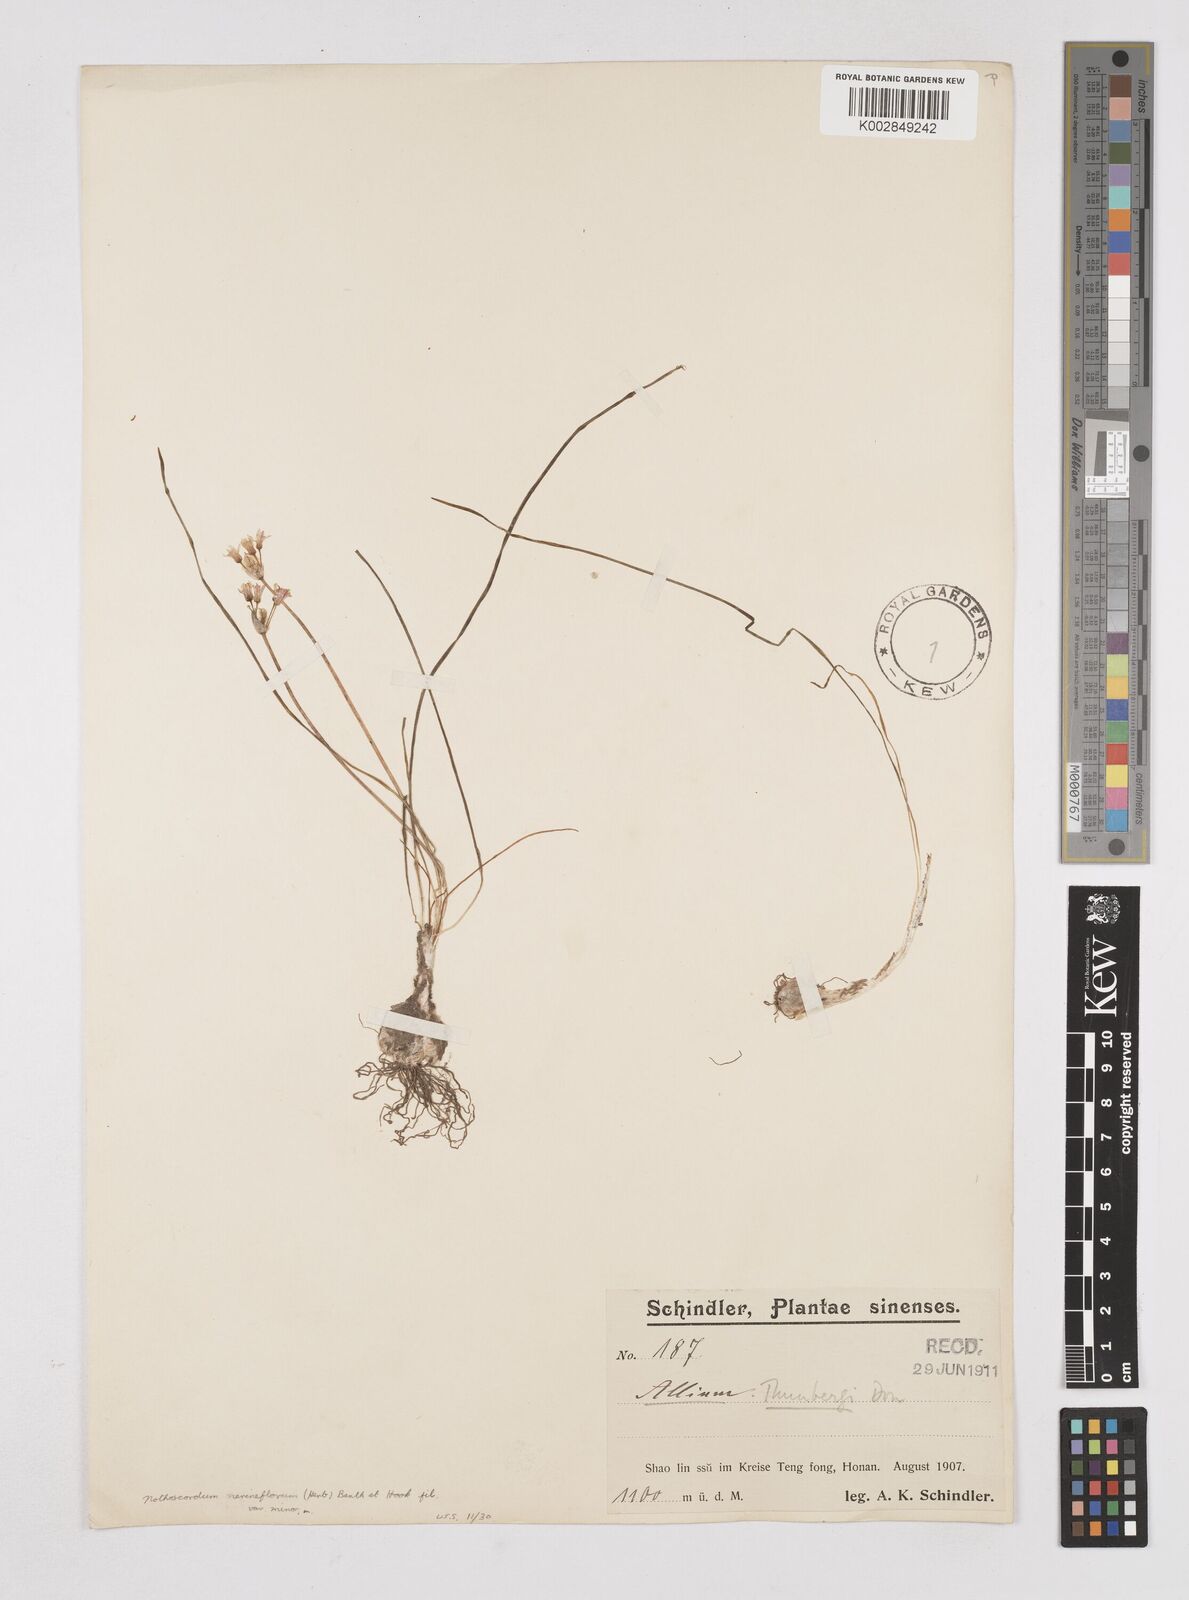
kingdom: Plantae
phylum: Tracheophyta
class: Liliopsida
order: Liliales
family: Liliaceae
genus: Agapanthus
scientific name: Agapanthus
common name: Agapanthus
